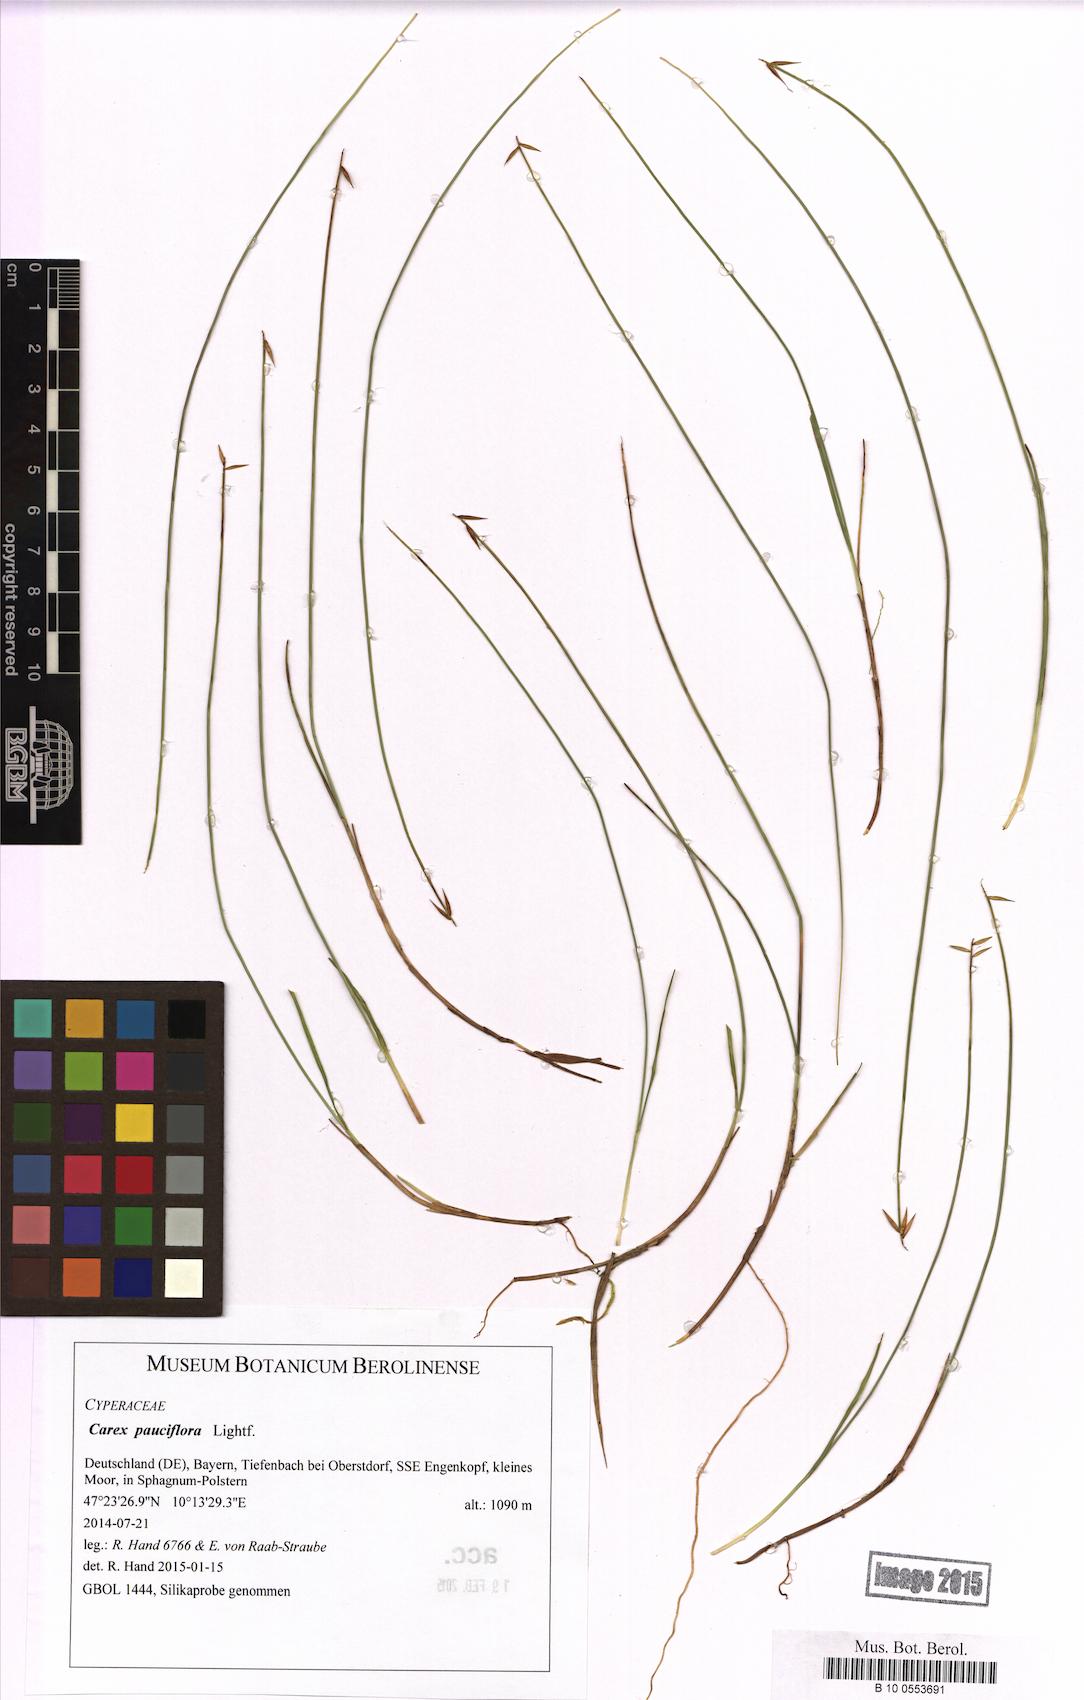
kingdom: Plantae
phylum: Tracheophyta
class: Liliopsida
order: Poales
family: Cyperaceae
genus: Carex
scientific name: Carex pauciflora
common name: Few-flowered sedge
